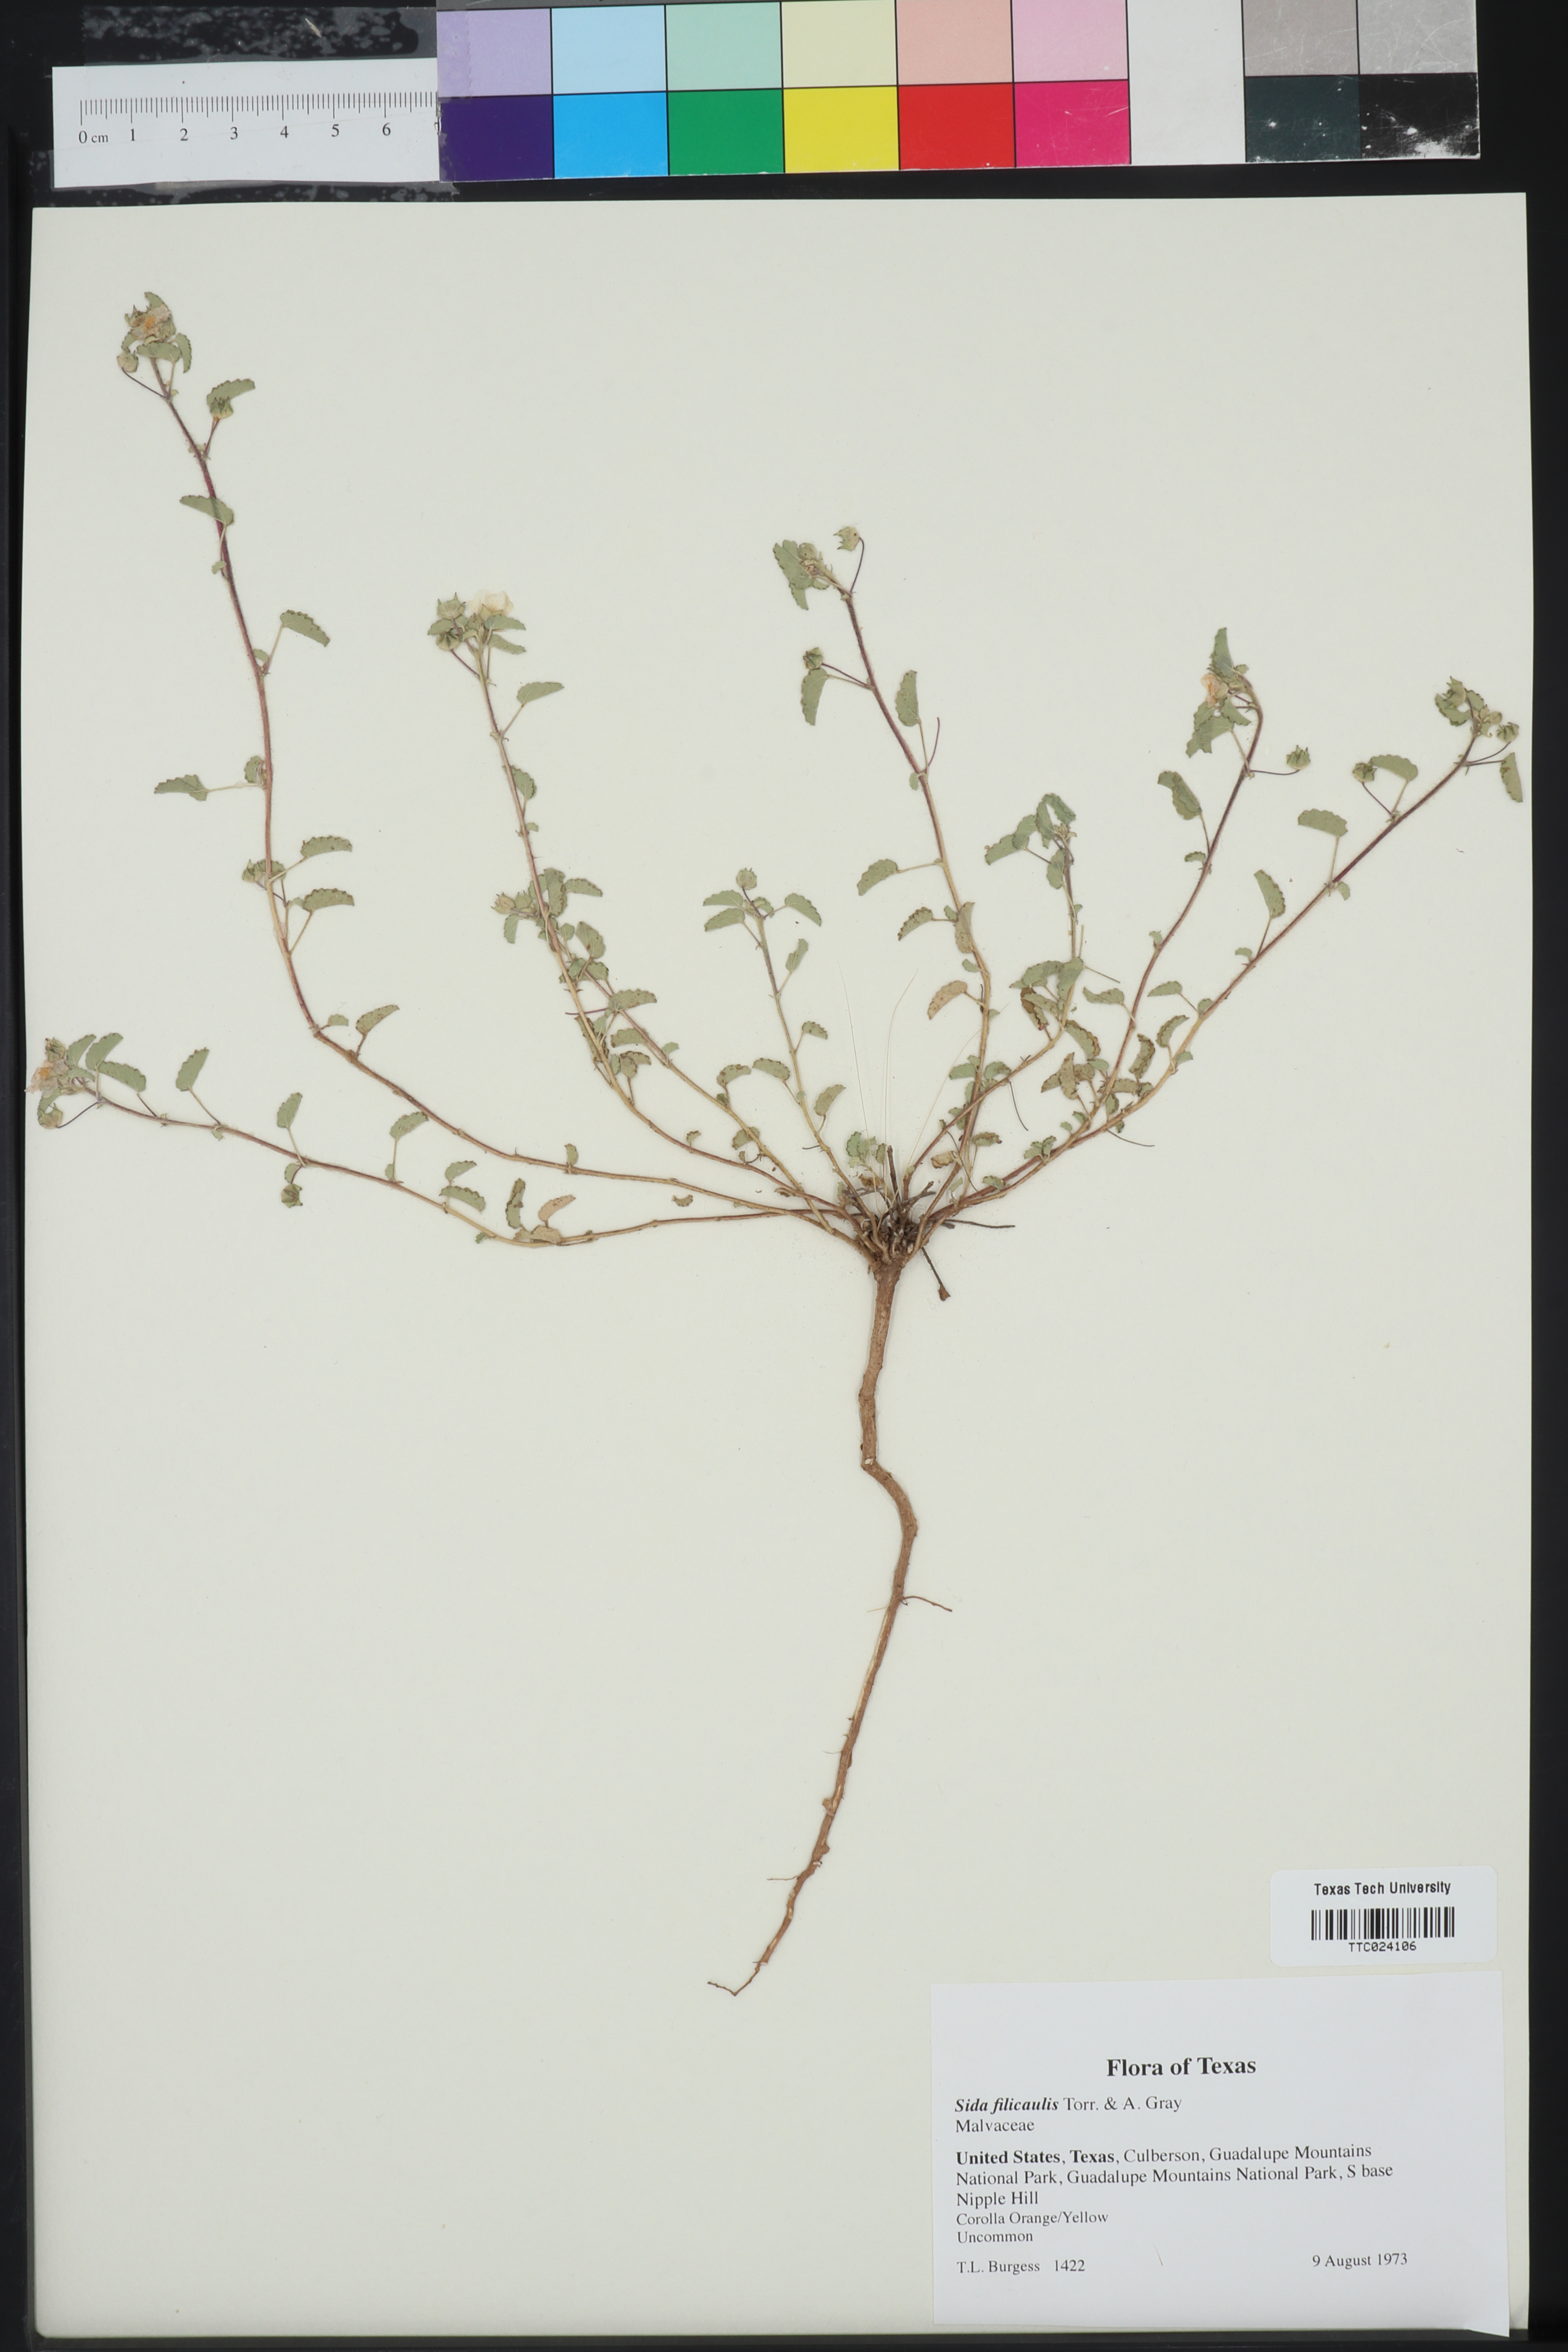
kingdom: Plantae
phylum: Tracheophyta
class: Magnoliopsida
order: Malvales
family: Malvaceae
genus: Sida
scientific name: Sida abutilifolia
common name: Spreading fanpetals
